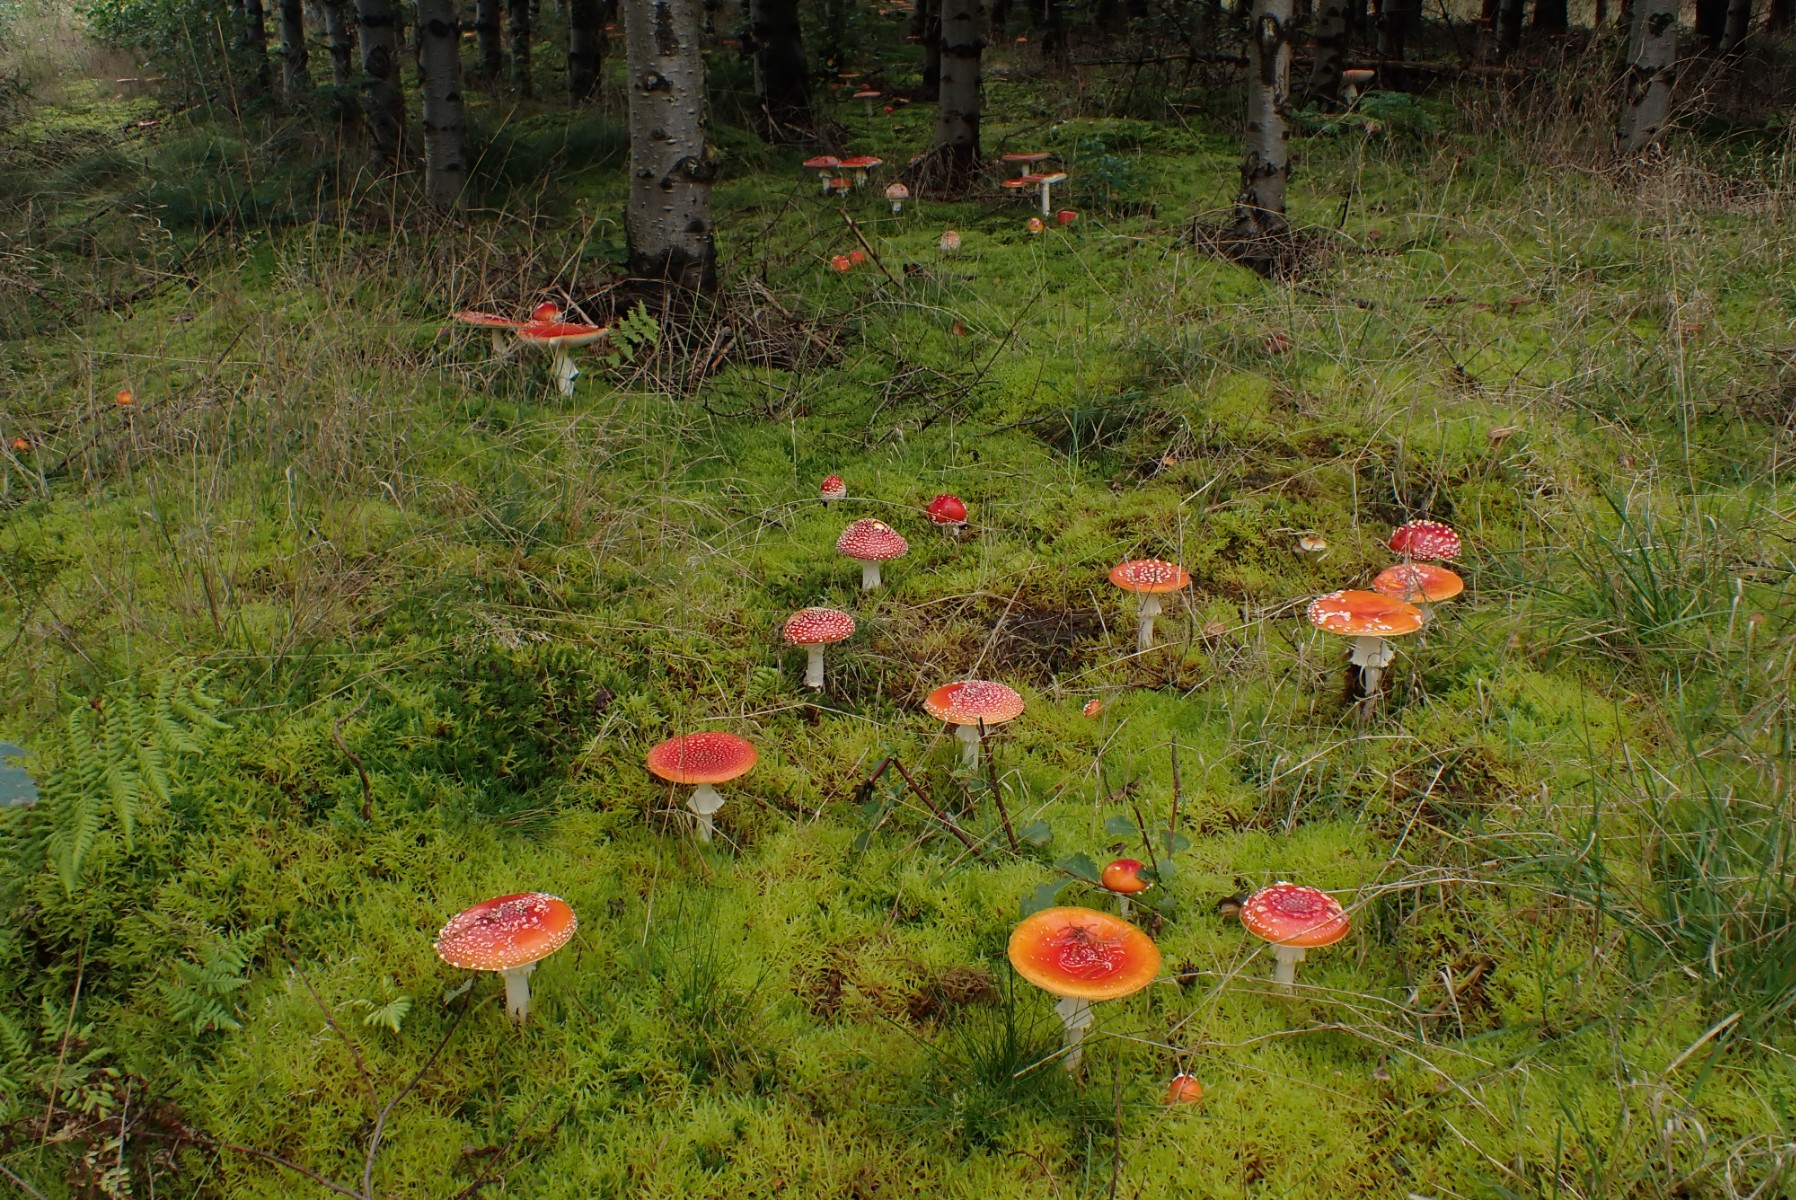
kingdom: Fungi
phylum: Basidiomycota
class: Agaricomycetes
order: Agaricales
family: Amanitaceae
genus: Amanita
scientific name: Amanita muscaria
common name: rød fluesvamp
